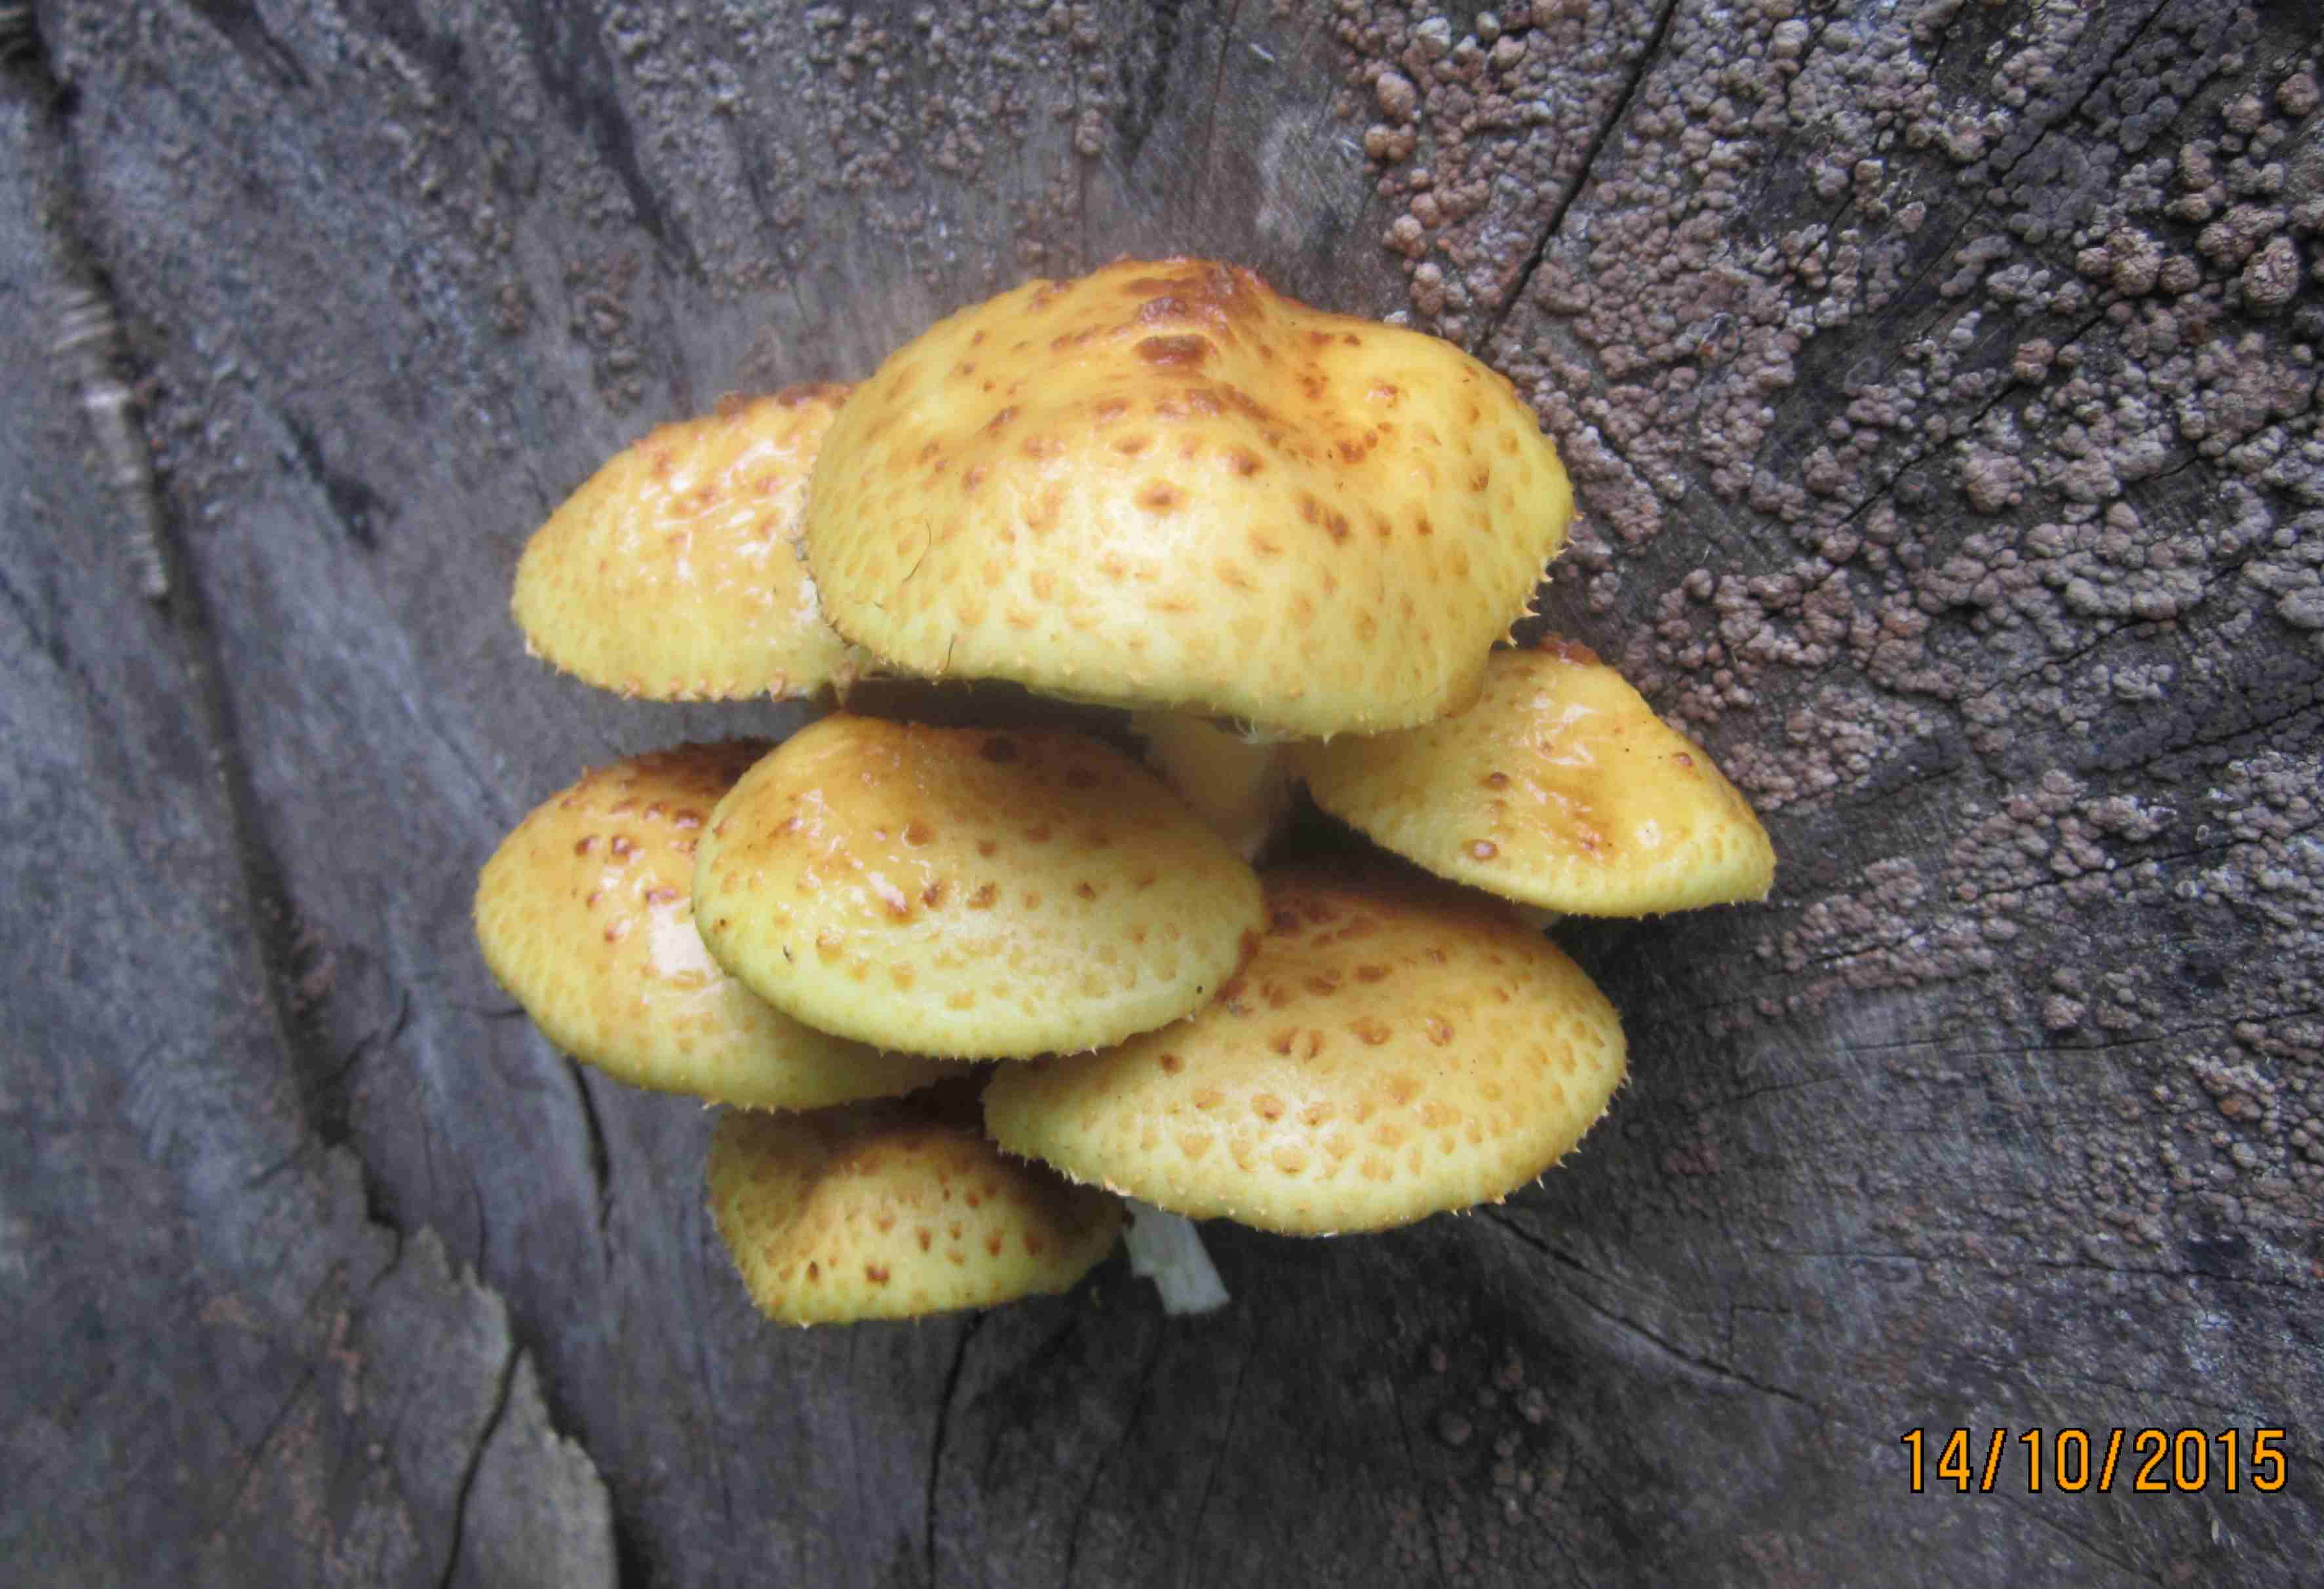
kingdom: Fungi
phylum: Basidiomycota
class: Agaricomycetes
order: Agaricales
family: Strophariaceae
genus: Pholiota
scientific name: Pholiota adiposa
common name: højtsiddende skælhat
